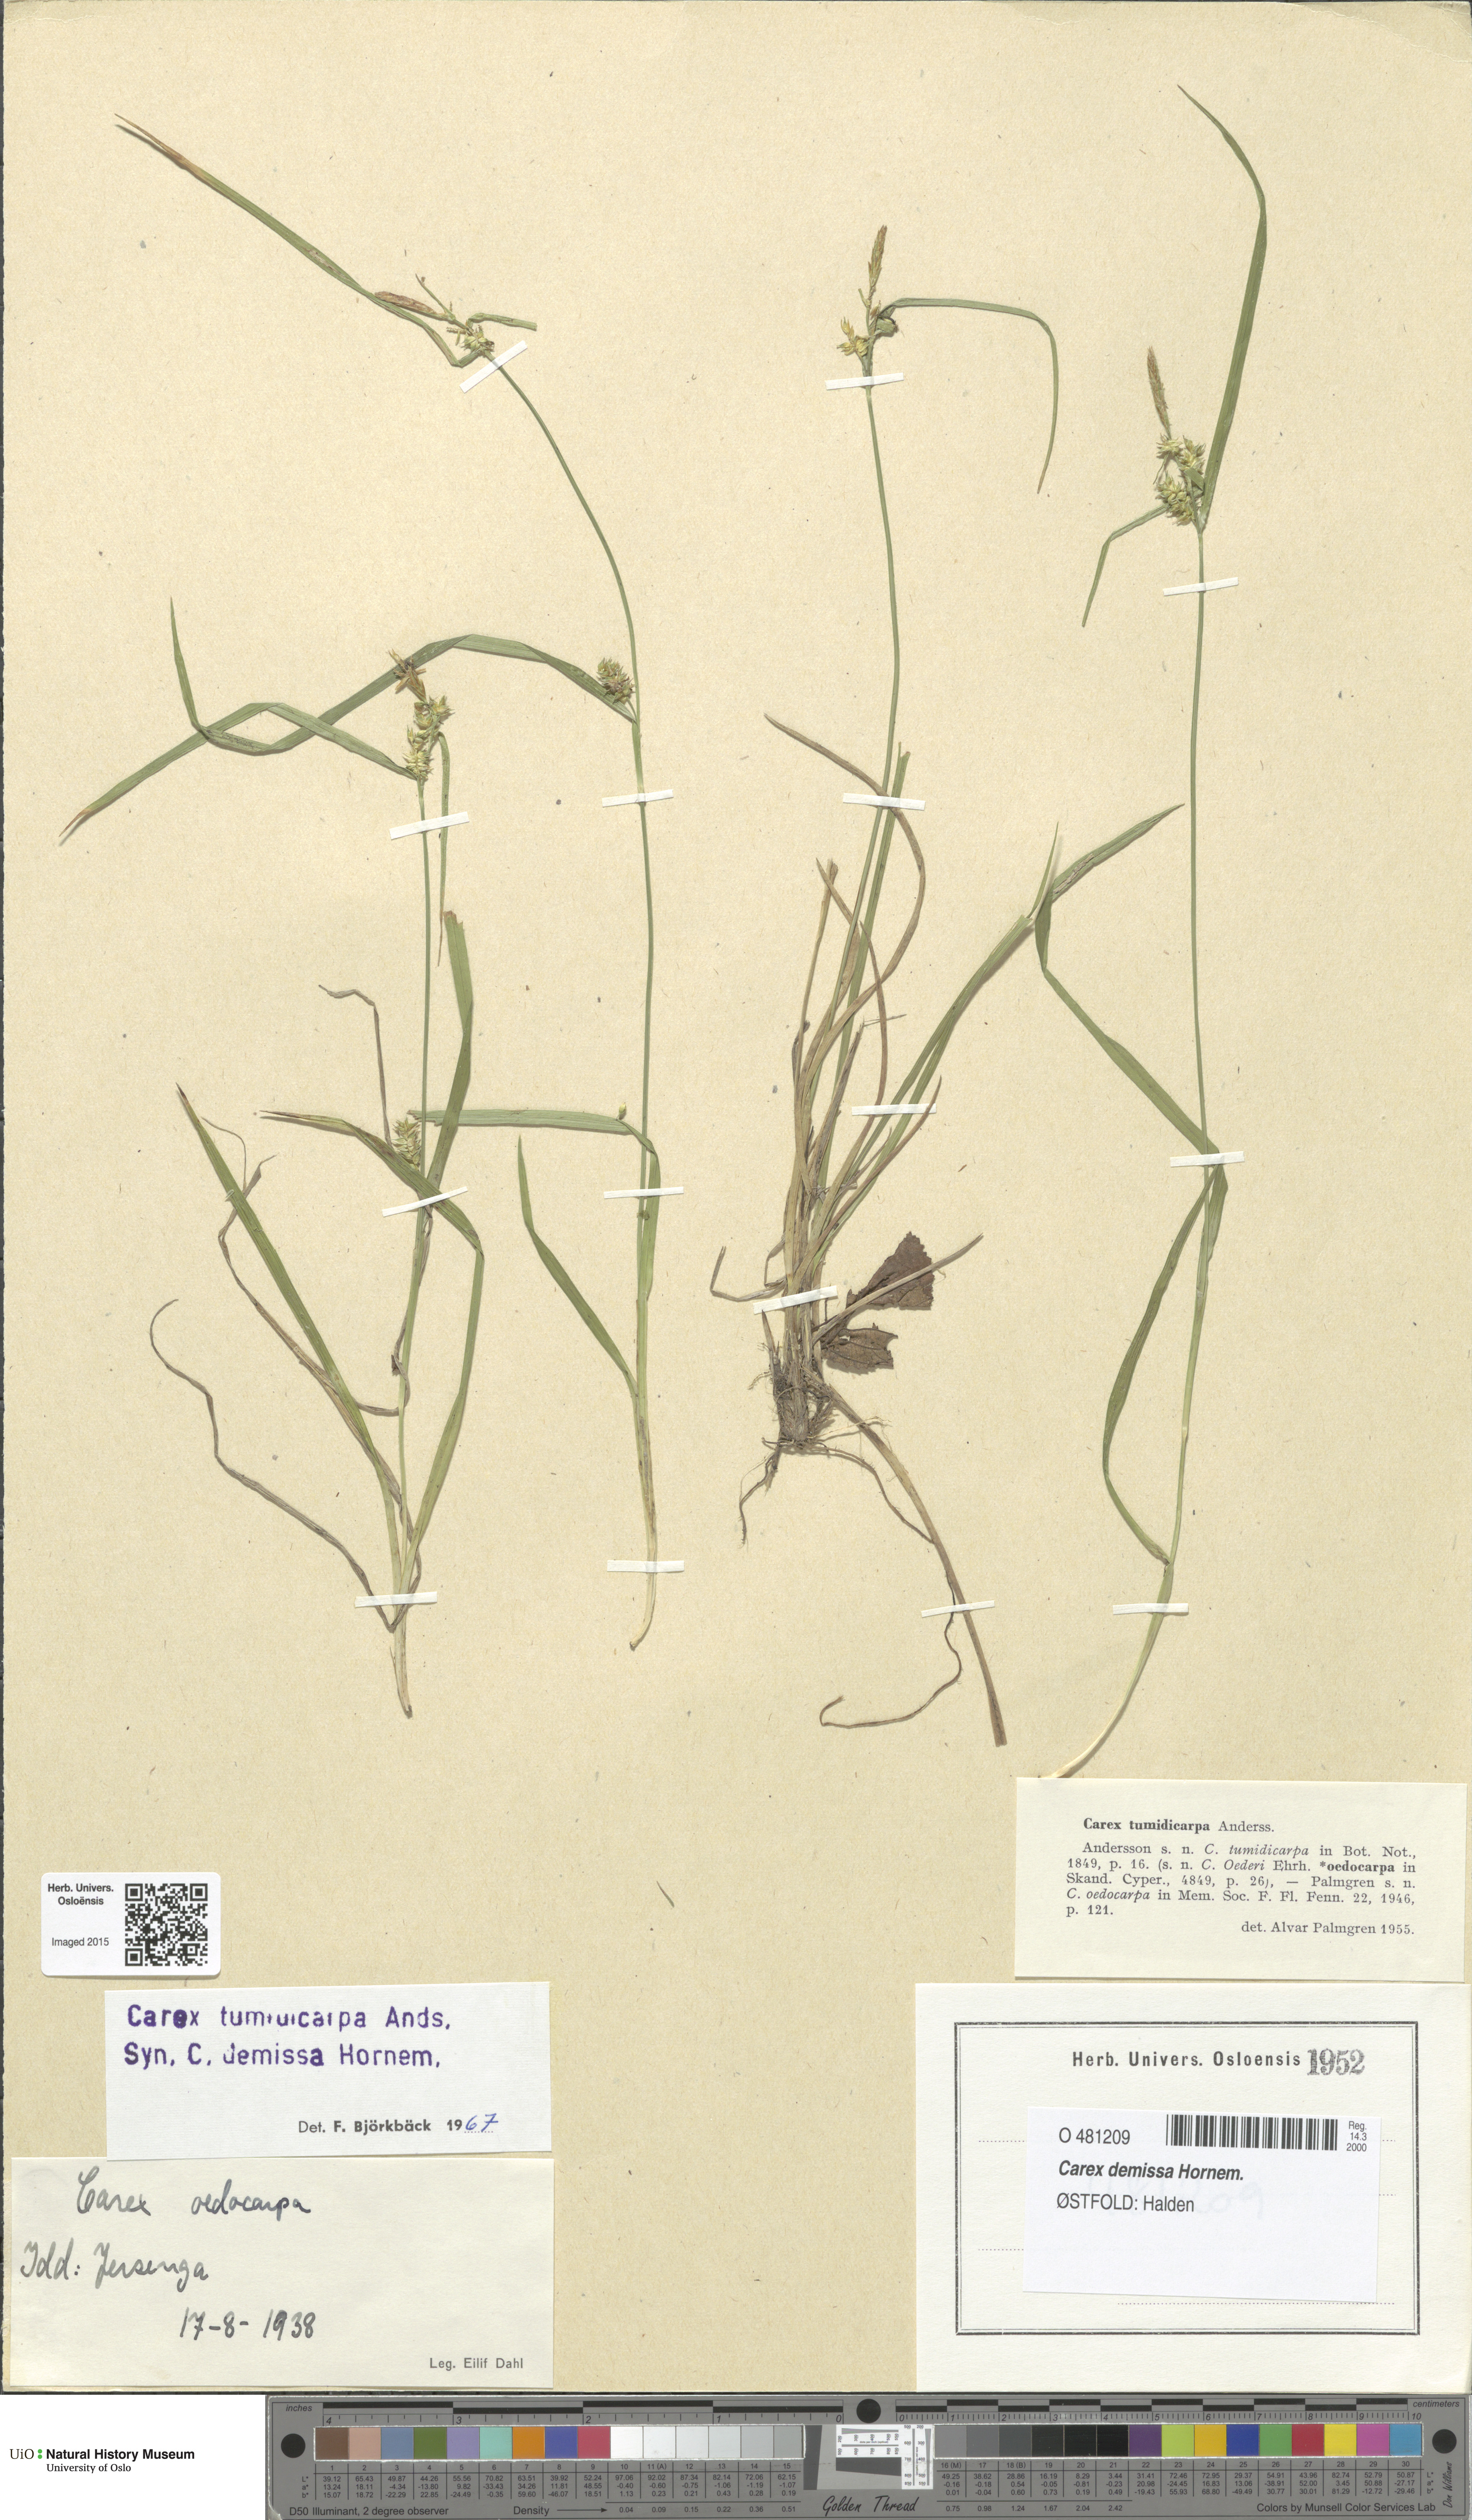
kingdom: Plantae
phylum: Tracheophyta
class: Liliopsida
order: Poales
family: Cyperaceae
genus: Carex
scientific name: Carex demissa
